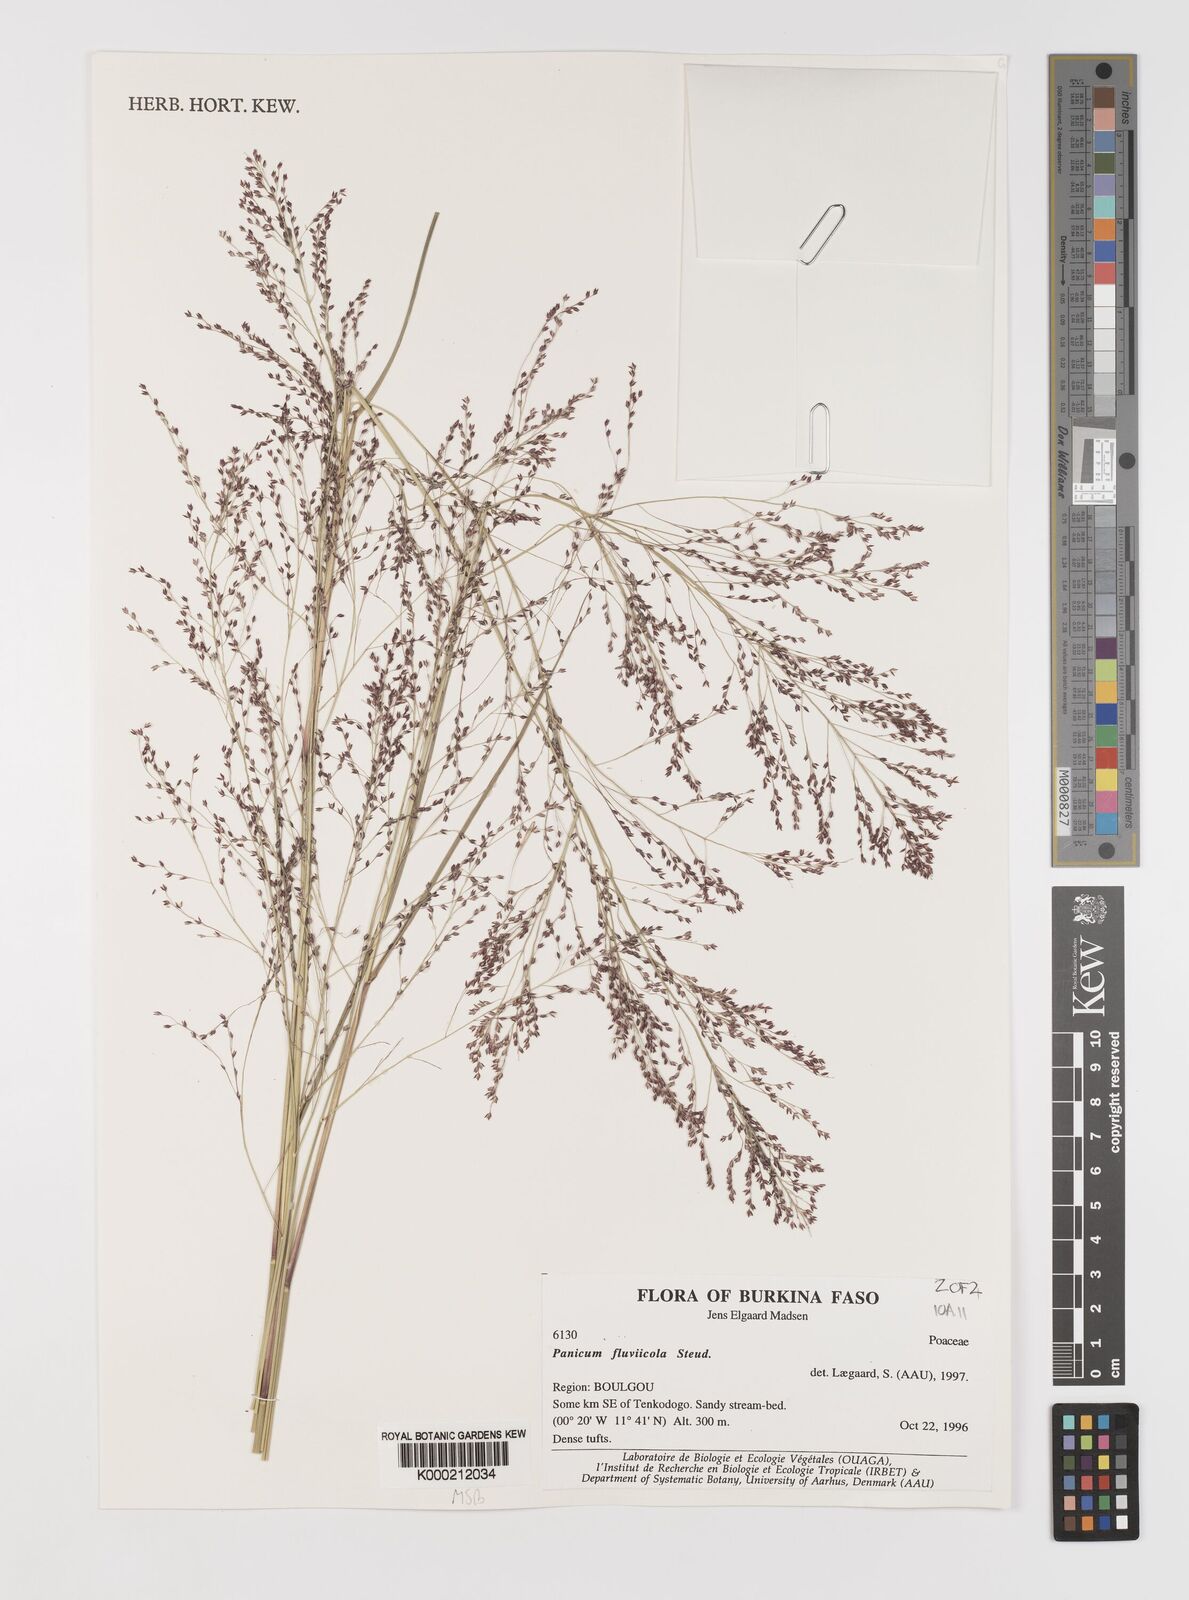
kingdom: Plantae
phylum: Tracheophyta
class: Liliopsida
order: Poales
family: Poaceae
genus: Panicum
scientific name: Panicum fluviicola
